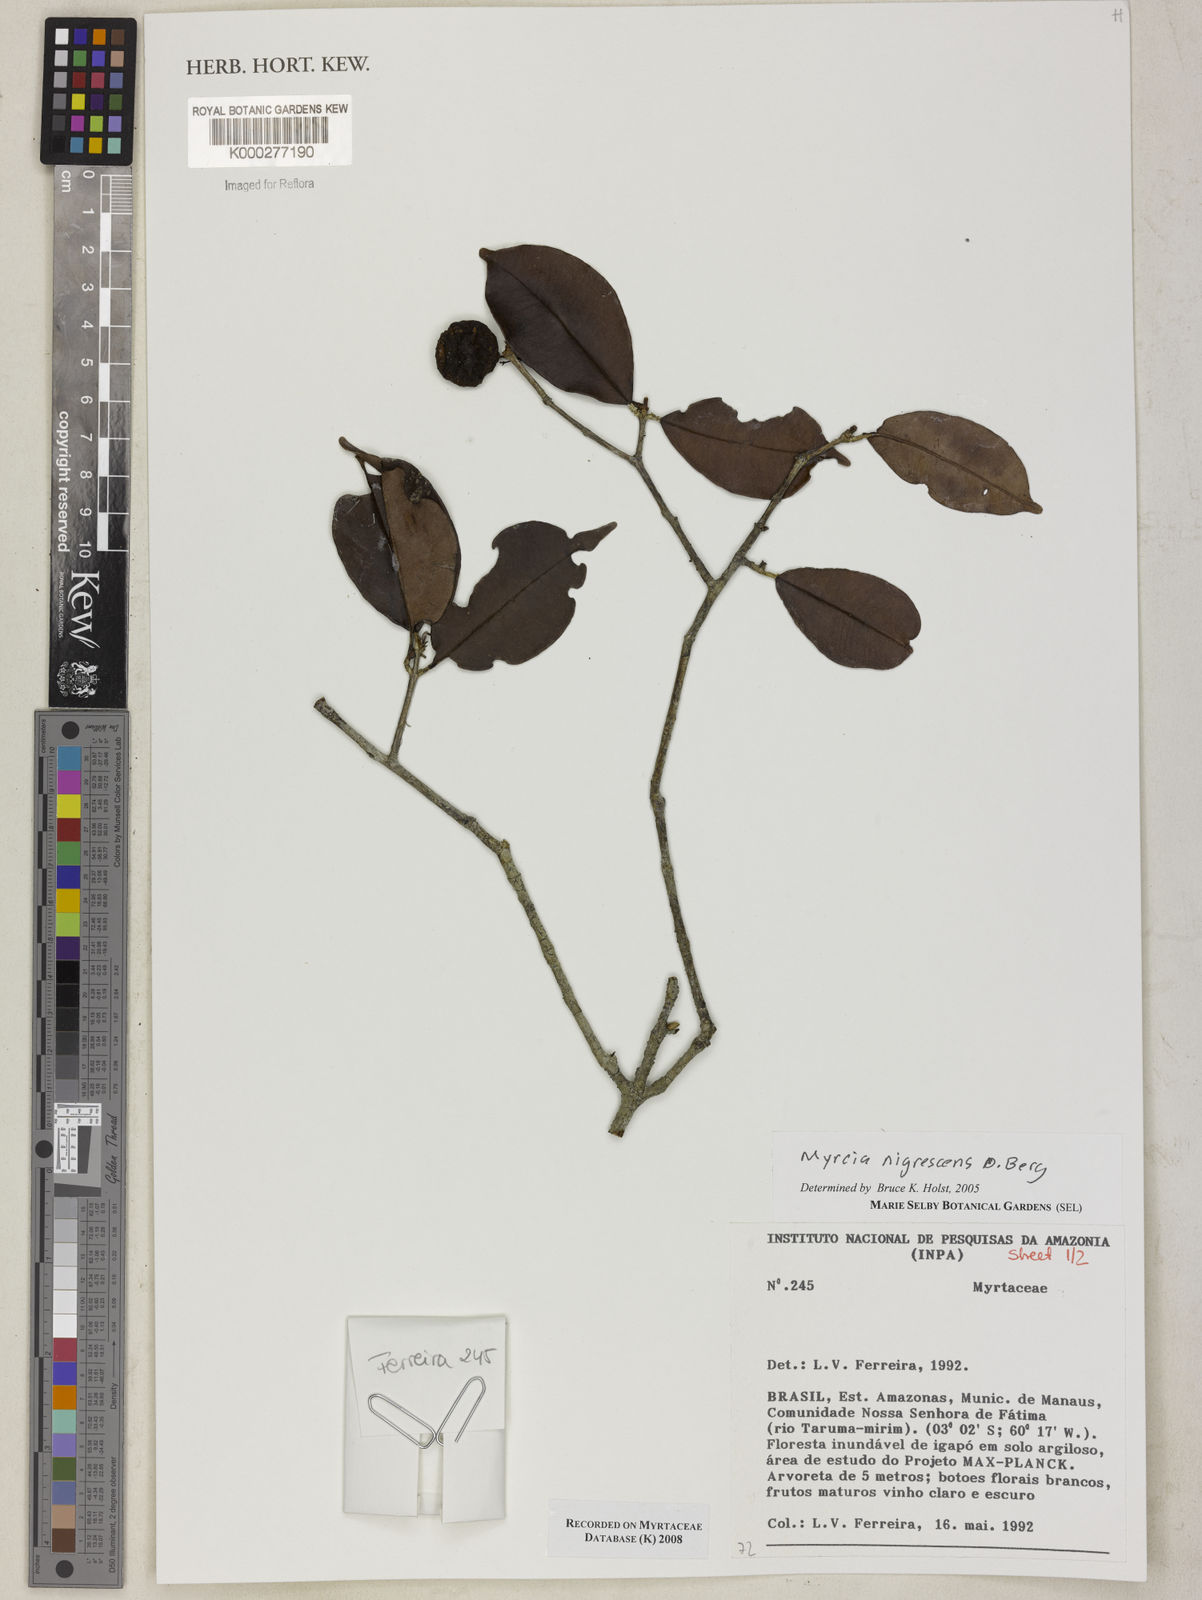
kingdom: Plantae
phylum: Tracheophyta
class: Magnoliopsida
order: Myrtales
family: Myrtaceae
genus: Myrcia
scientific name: Myrcia umbraticola
